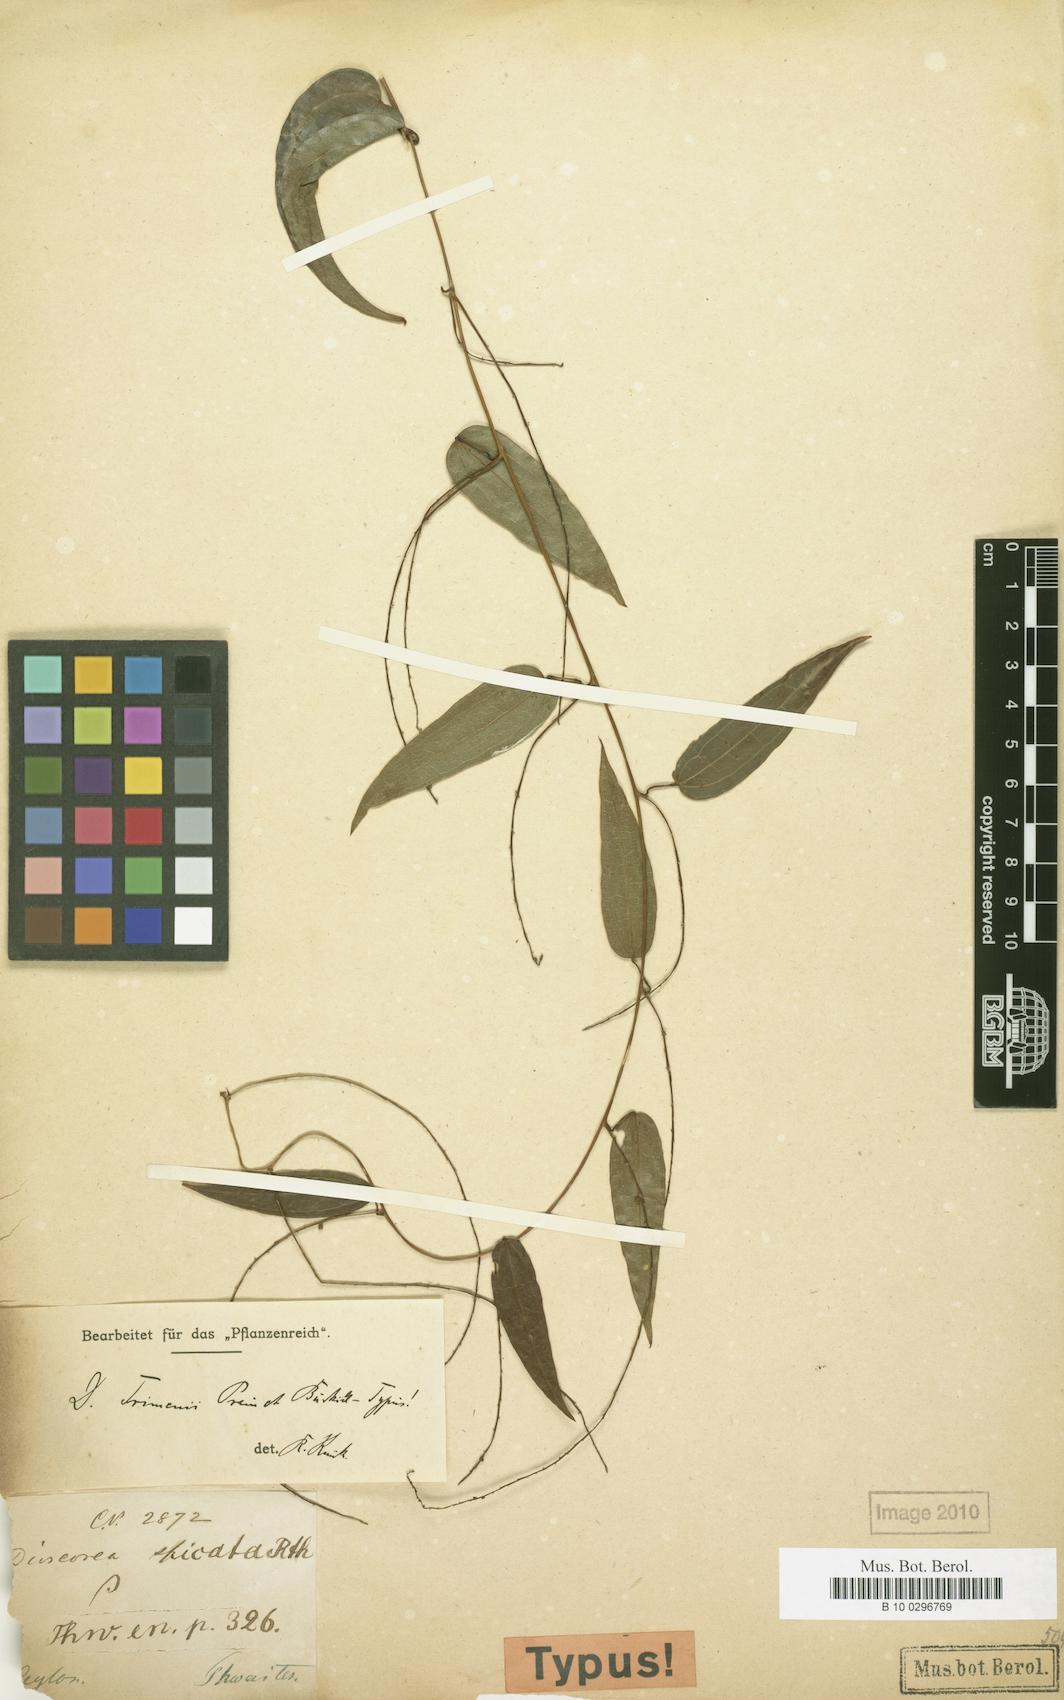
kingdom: Plantae
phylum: Tracheophyta
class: Liliopsida
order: Dioscoreales
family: Dioscoreaceae
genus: Dioscorea
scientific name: Dioscorea trimenii
